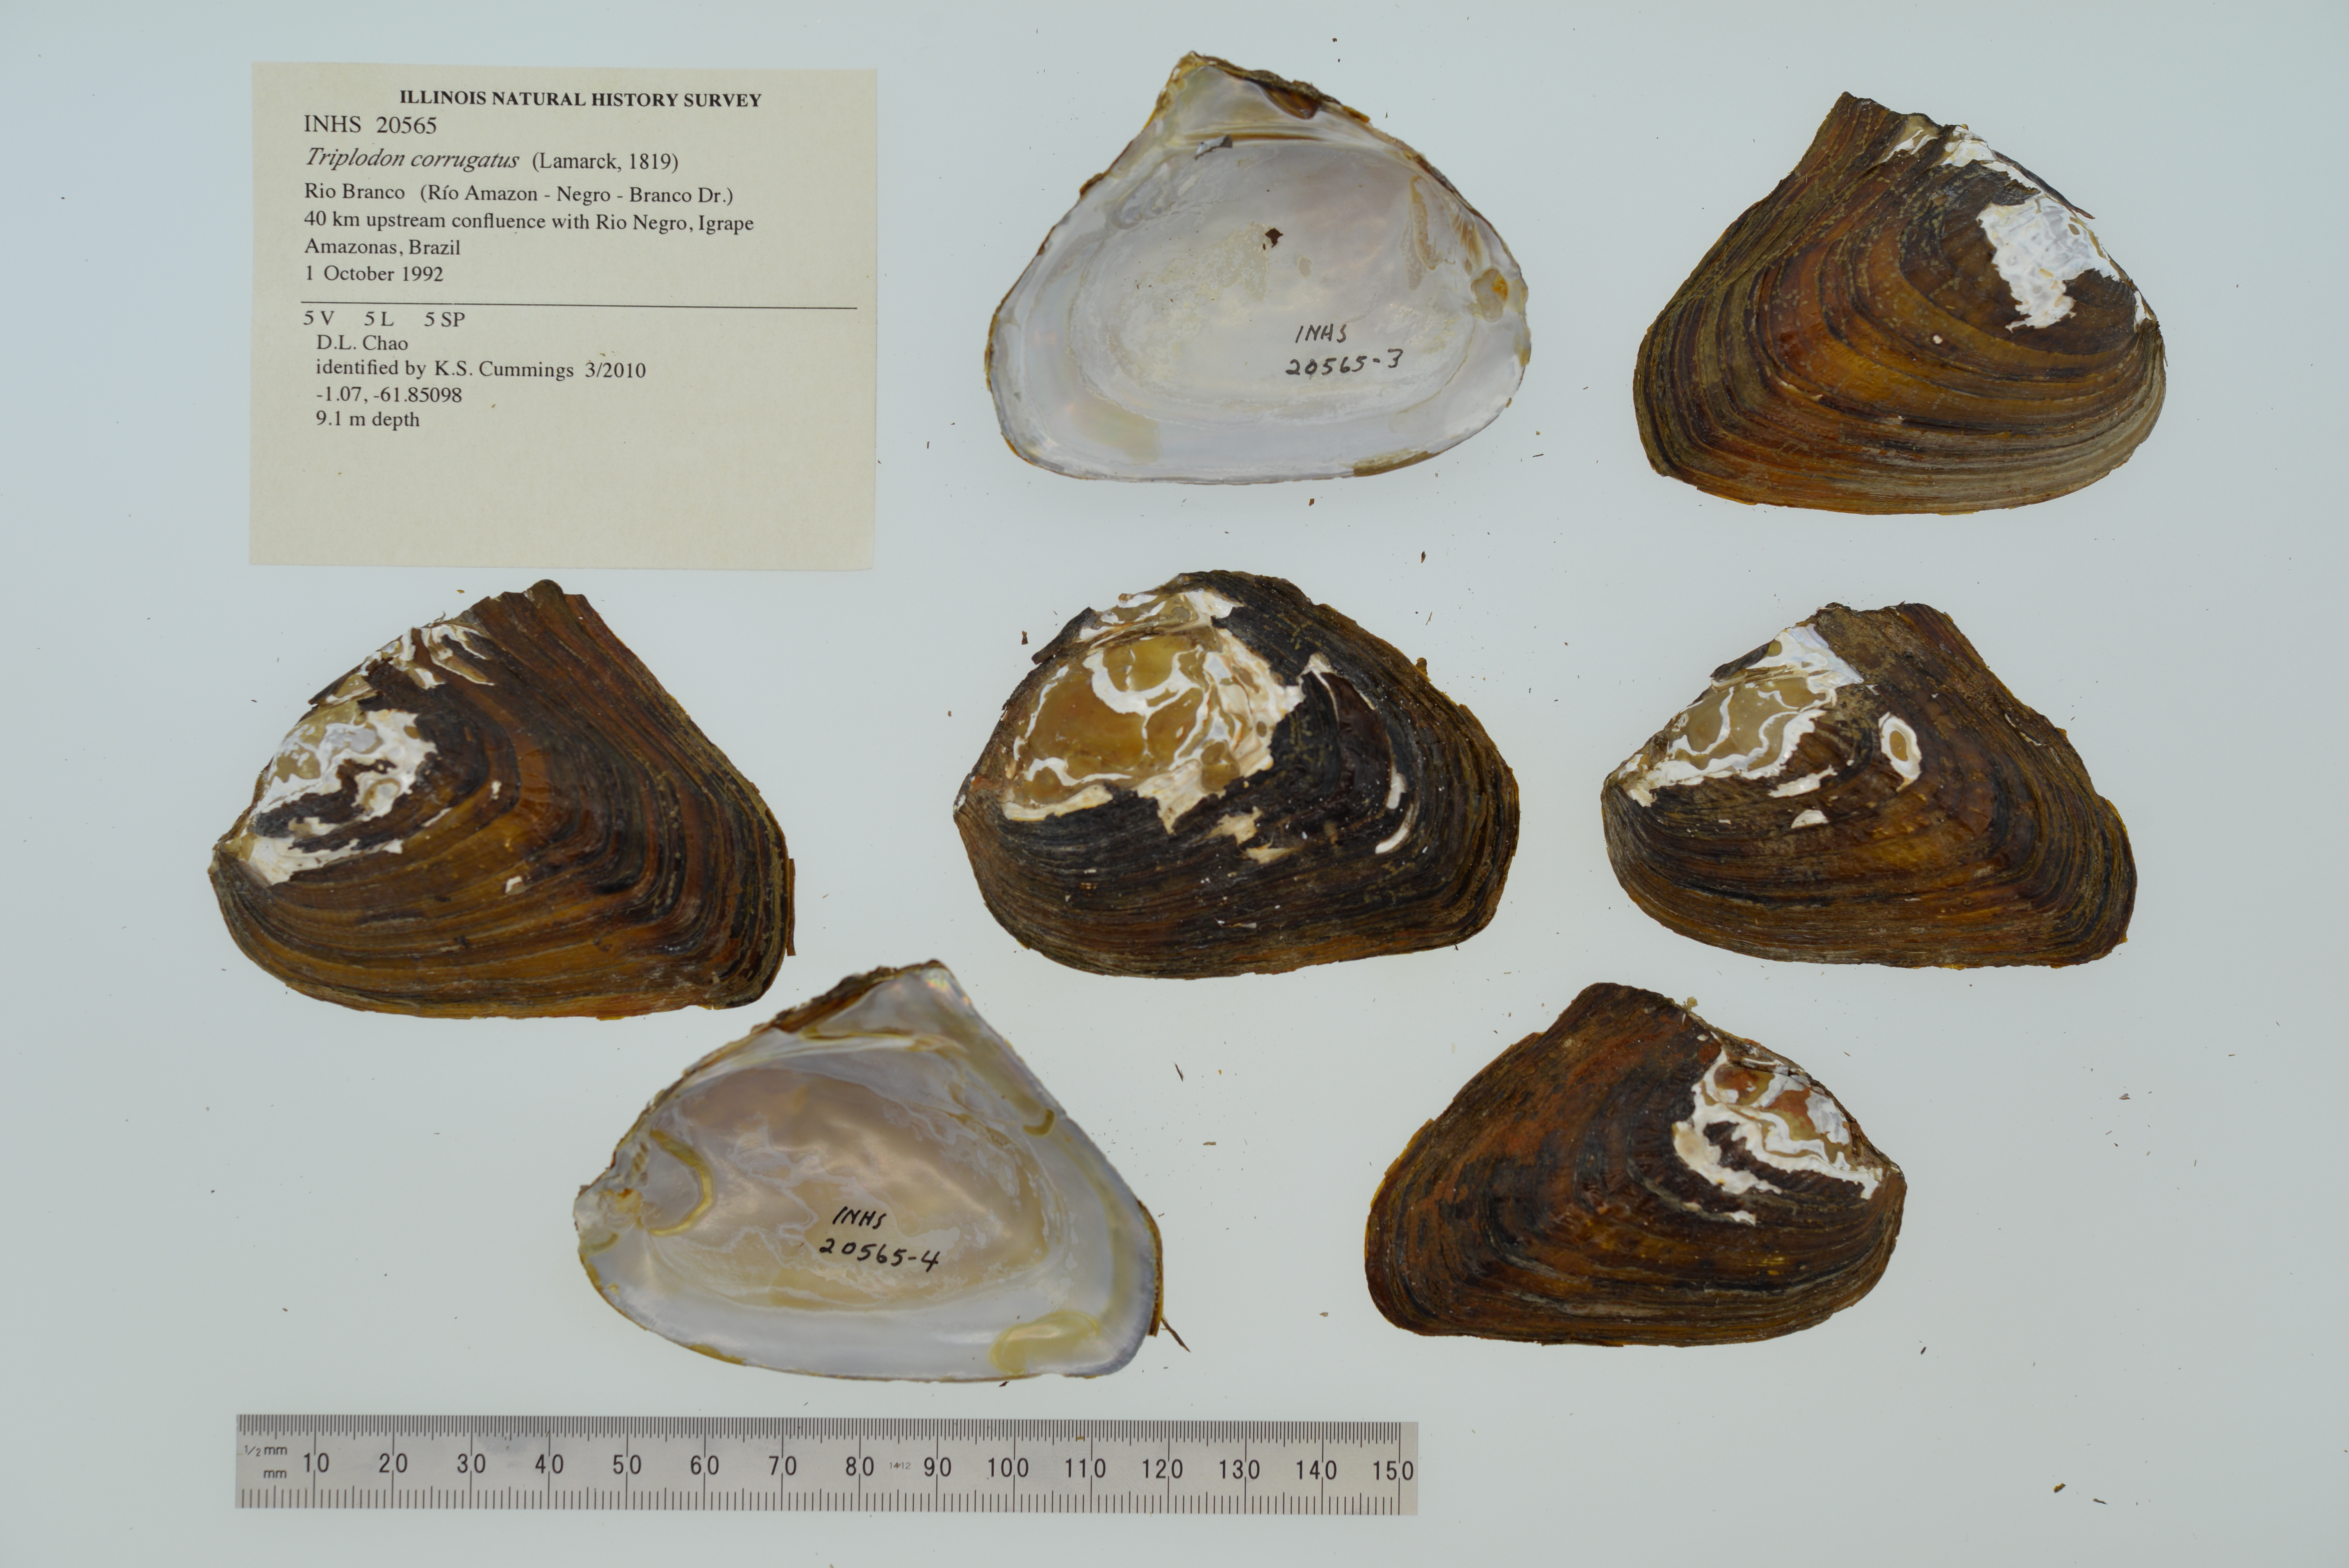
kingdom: Animalia
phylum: Mollusca
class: Bivalvia
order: Unionida
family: Hyriidae
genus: Triplodon
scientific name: Triplodon
